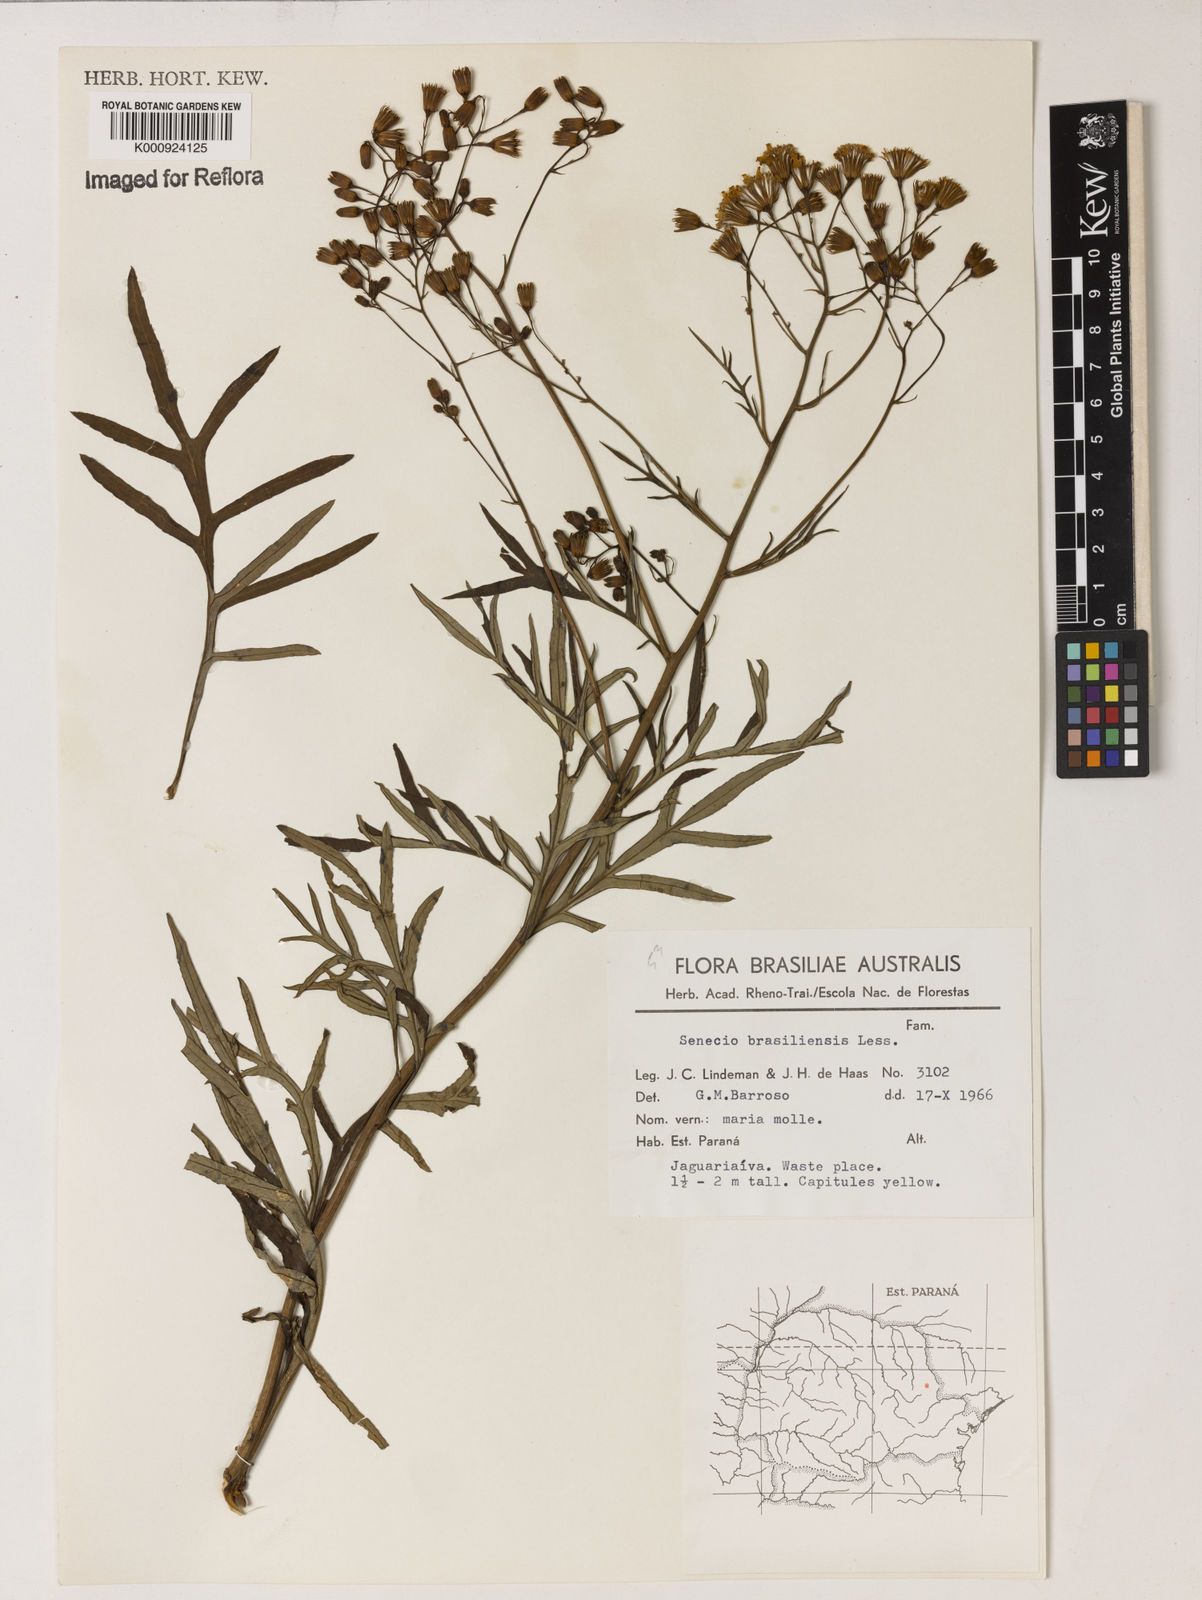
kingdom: Plantae
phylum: Tracheophyta
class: Magnoliopsida
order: Asterales
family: Asteraceae
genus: Senecio
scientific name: Senecio brasiliensis
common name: Hemp-leaf ragwort
